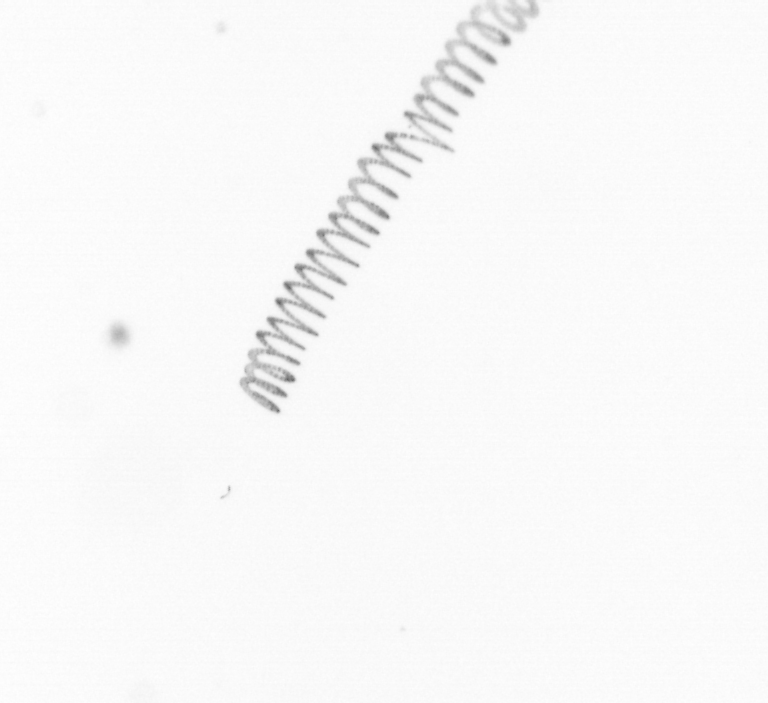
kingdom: Chromista
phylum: Ochrophyta
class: Bacillariophyceae
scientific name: Bacillariophyceae
